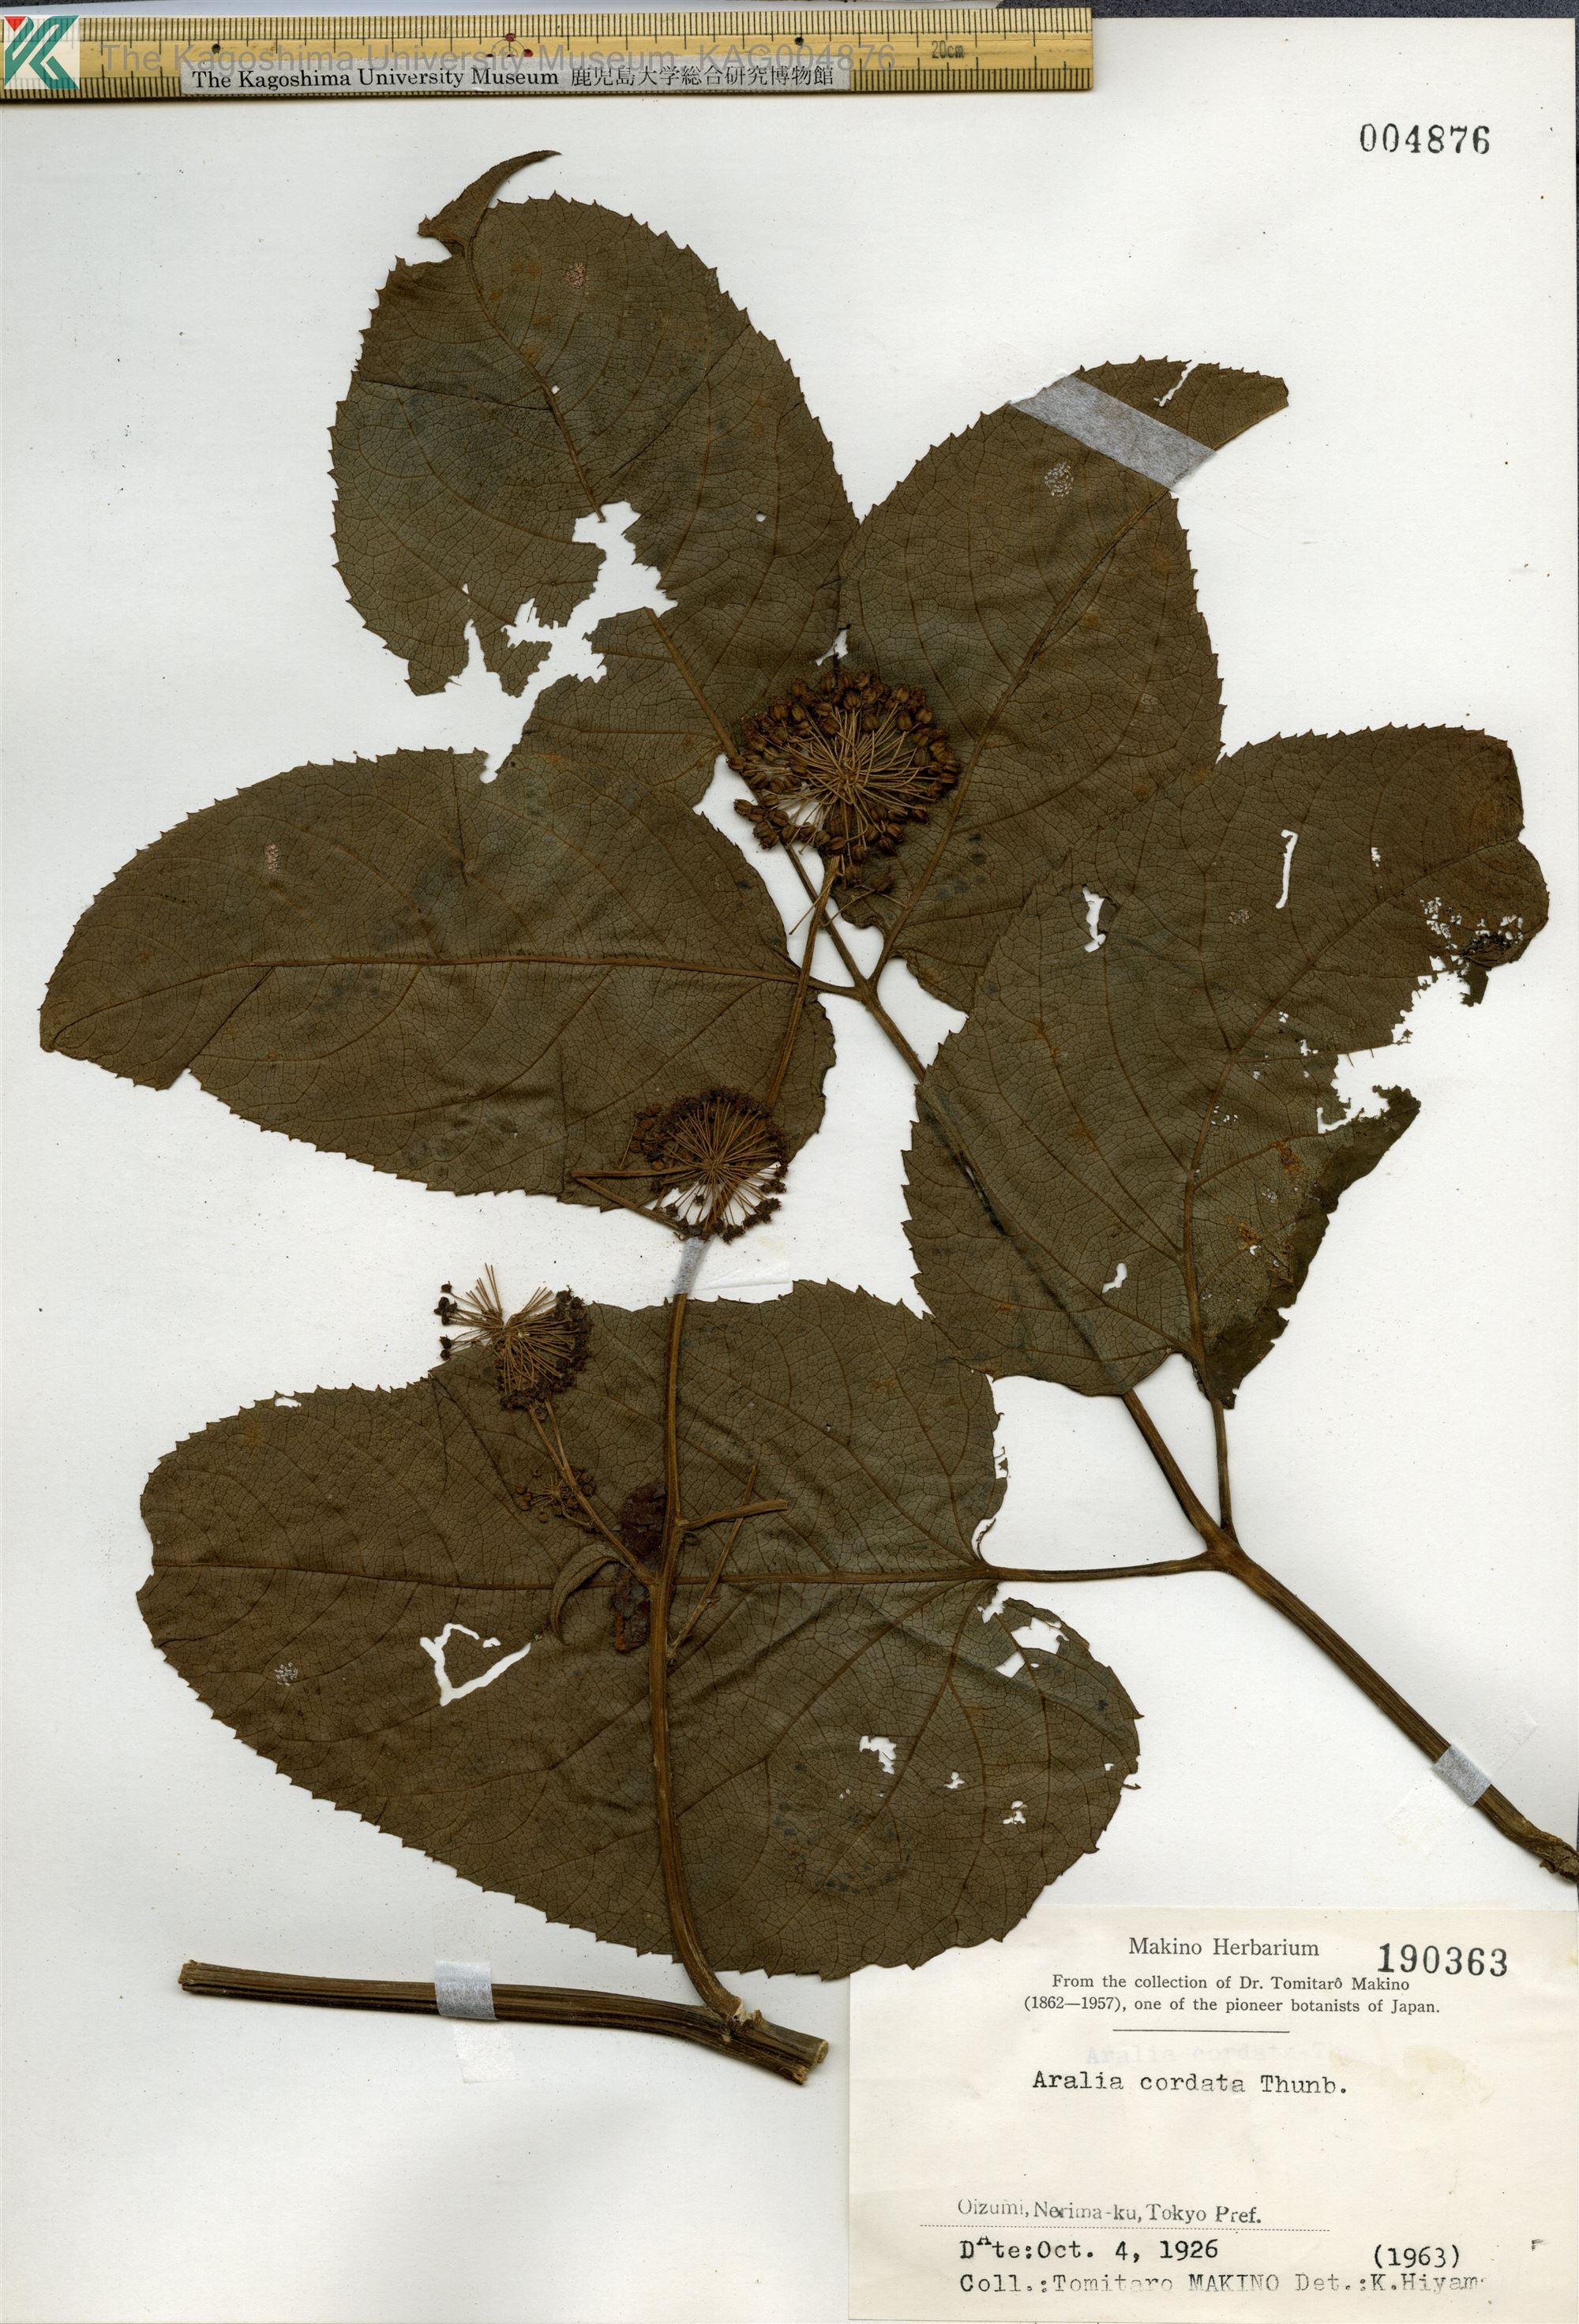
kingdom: Plantae
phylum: Tracheophyta
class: Magnoliopsida
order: Apiales
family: Araliaceae
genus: Aralia
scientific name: Aralia cordata
